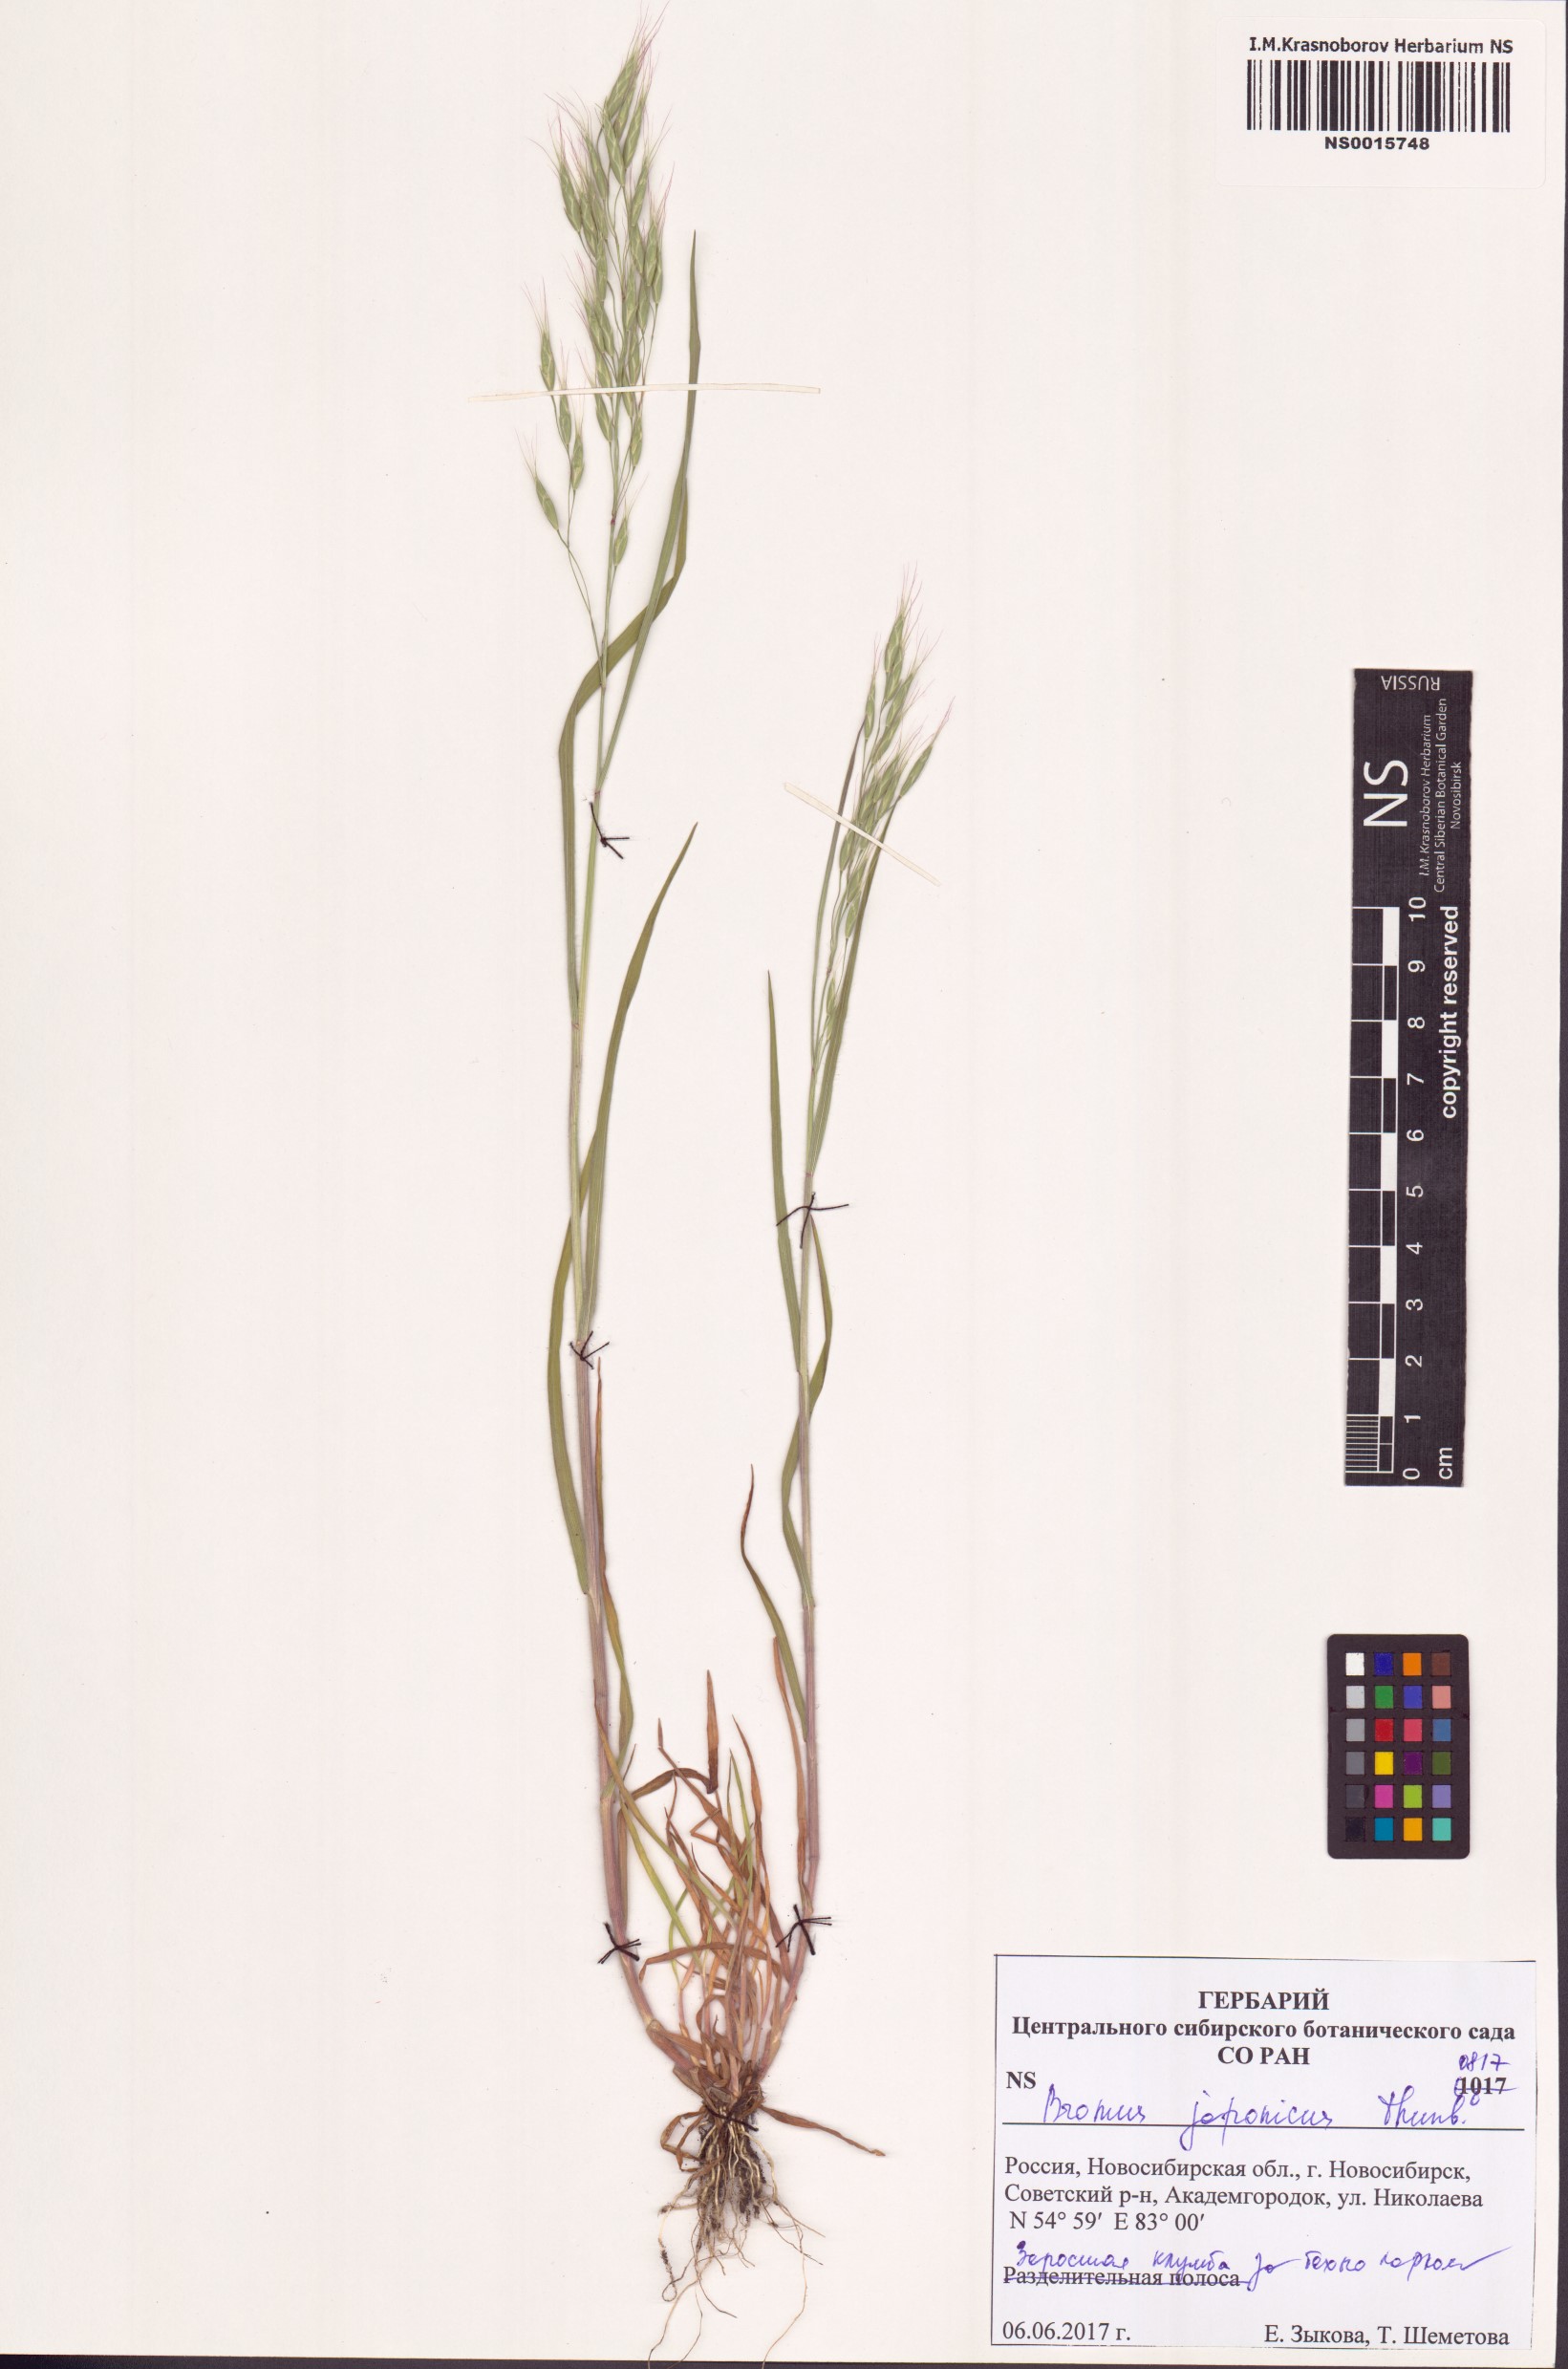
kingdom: Plantae
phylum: Tracheophyta
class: Liliopsida
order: Poales
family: Poaceae
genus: Bromus
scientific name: Bromus japonicus
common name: Japanese brome
